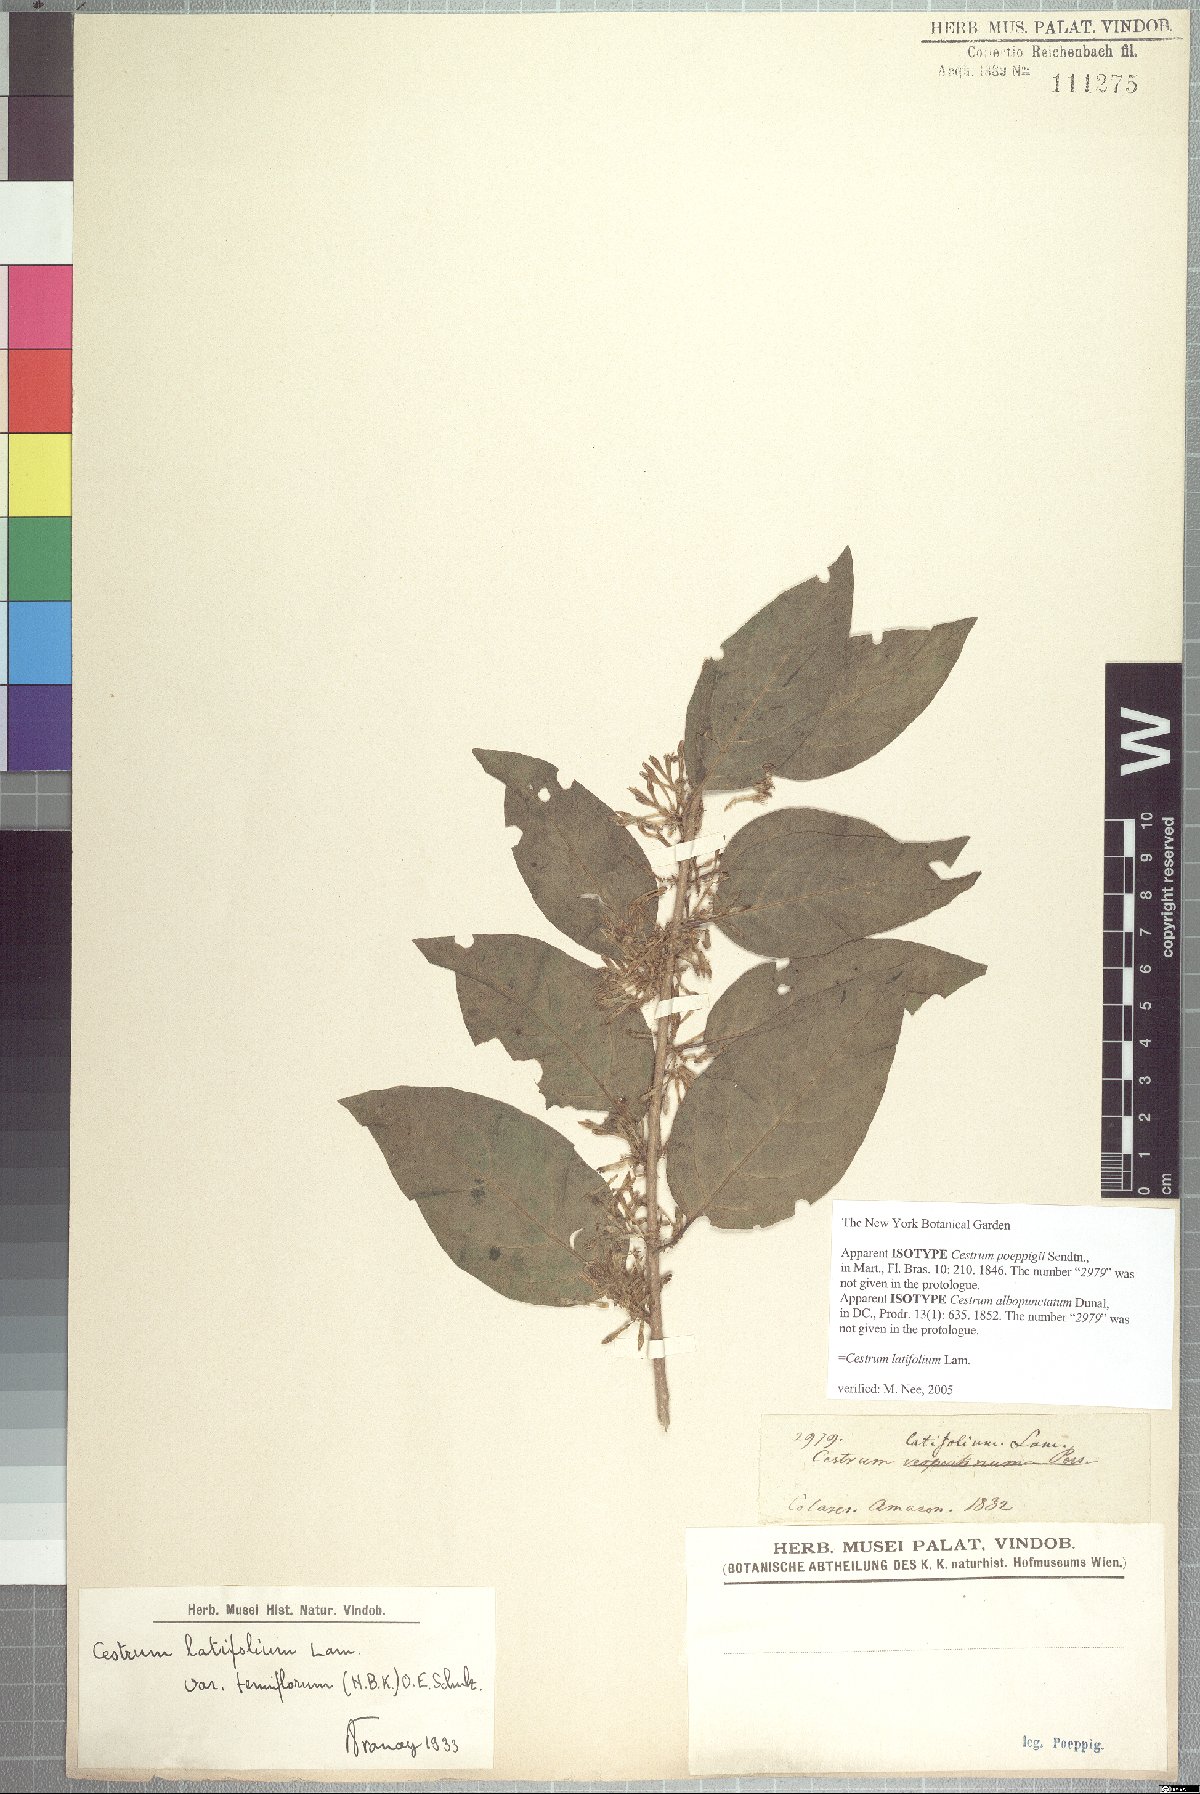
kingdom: Plantae
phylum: Tracheophyta
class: Magnoliopsida
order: Solanales
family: Solanaceae
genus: Cestrum
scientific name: Cestrum latifolium
